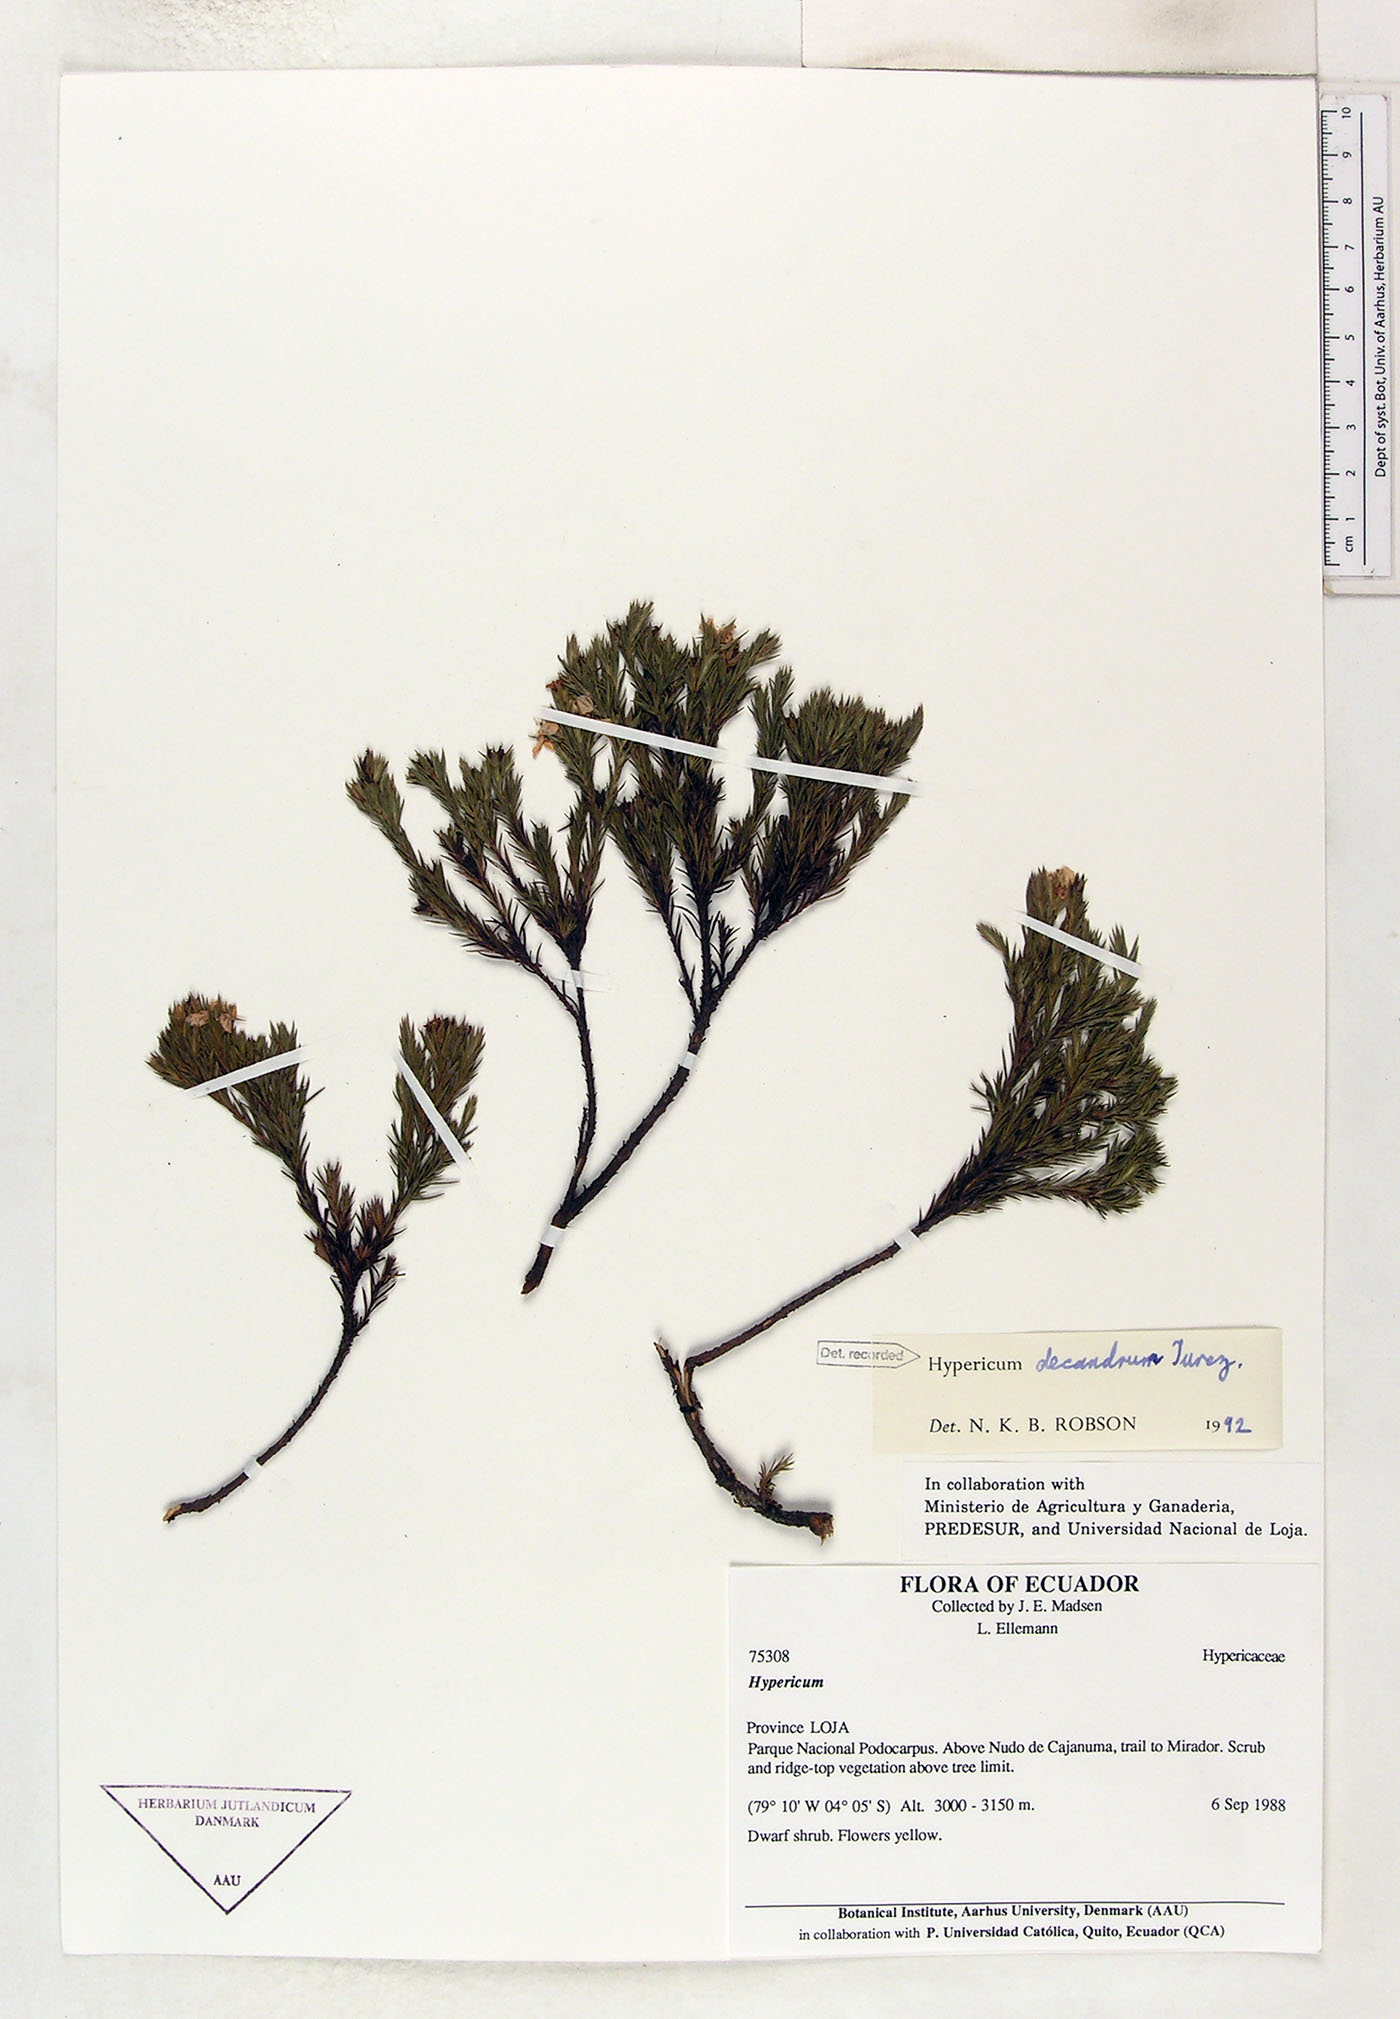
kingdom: Plantae
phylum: Tracheophyta
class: Magnoliopsida
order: Malpighiales
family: Hypericaceae
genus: Hypericum
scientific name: Hypericum decandrum
